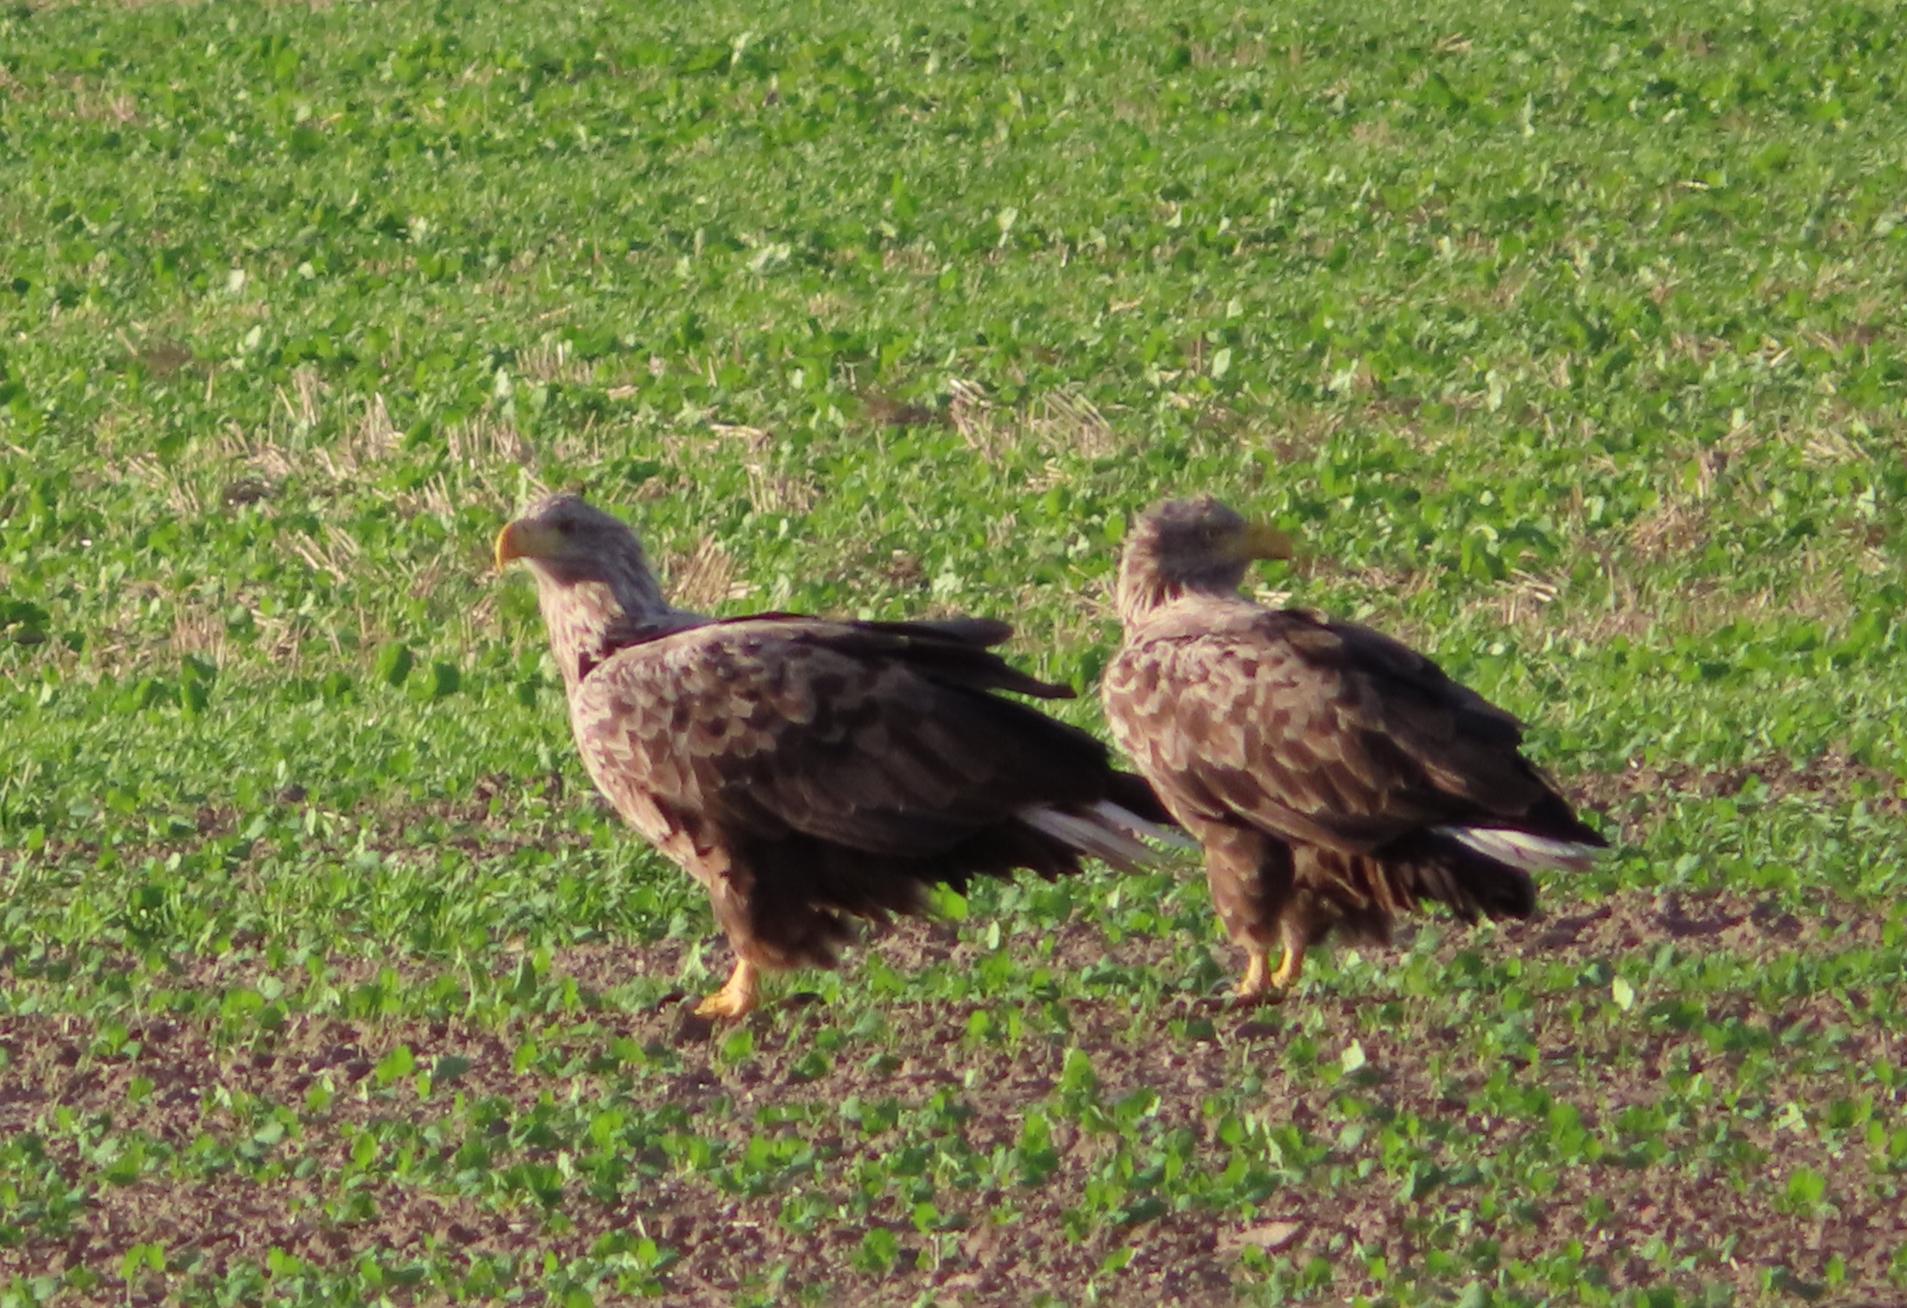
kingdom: Animalia
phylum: Chordata
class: Aves
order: Accipitriformes
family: Accipitridae
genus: Haliaeetus
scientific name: Haliaeetus albicilla
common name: Havørn
